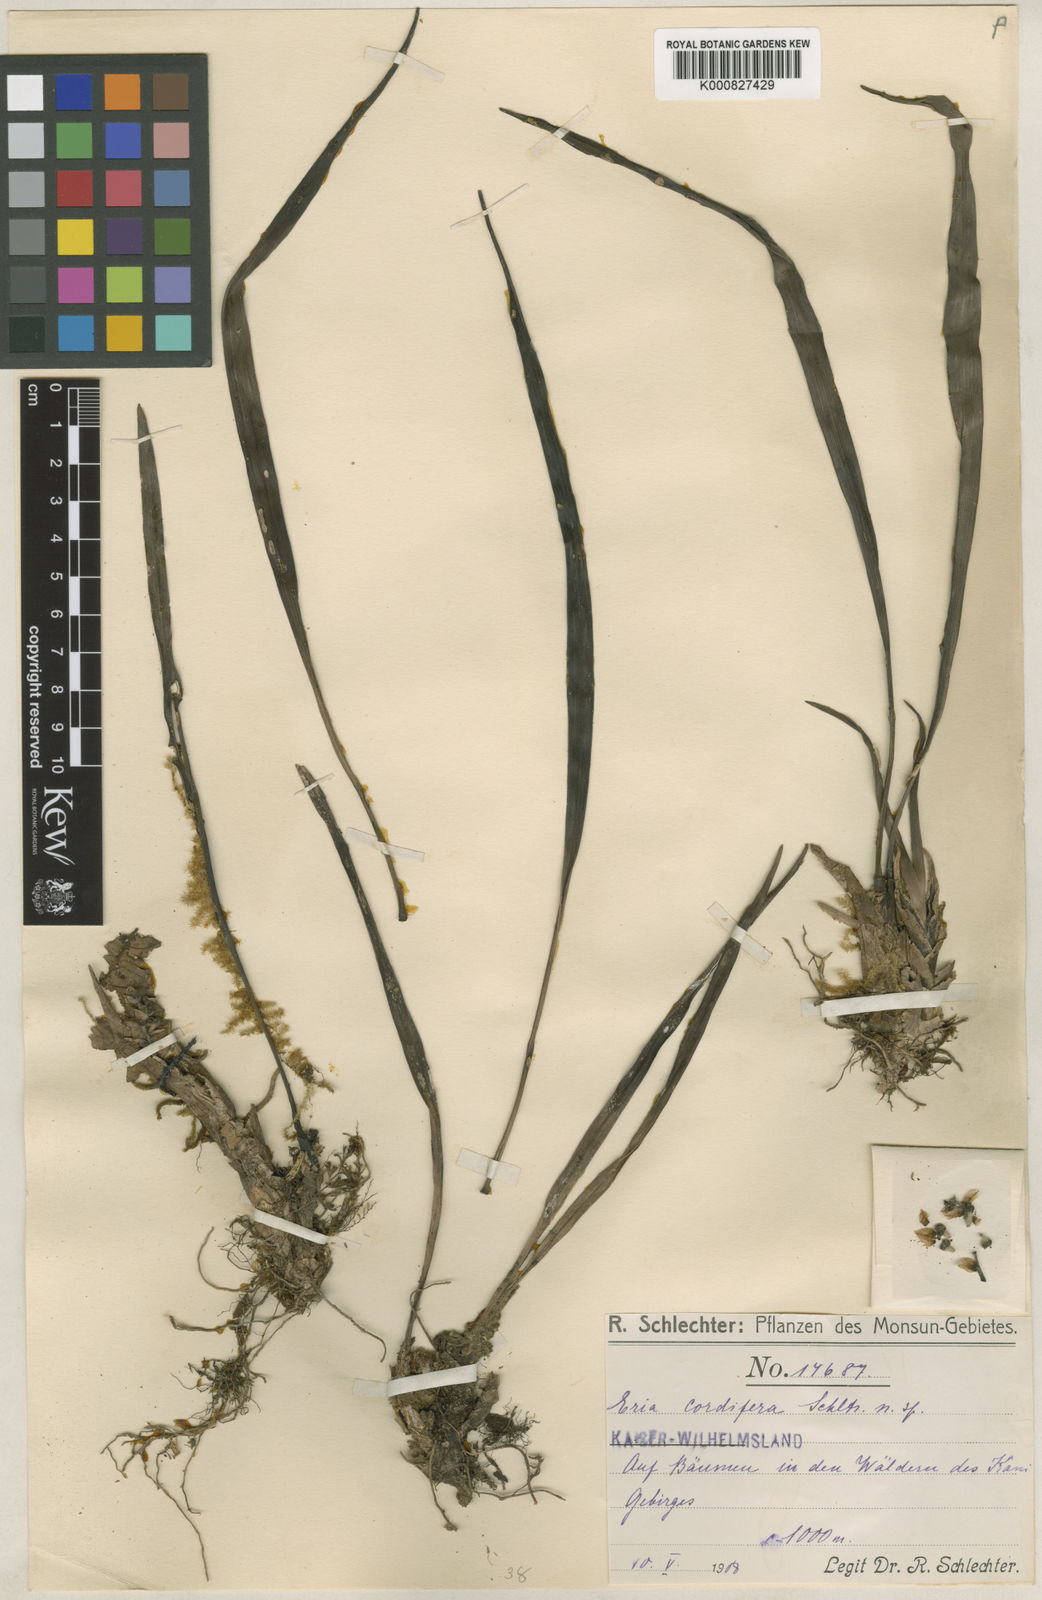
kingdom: Plantae
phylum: Tracheophyta
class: Liliopsida
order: Asparagales
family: Orchidaceae
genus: Bryobium
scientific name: Bryobium cordiferum
